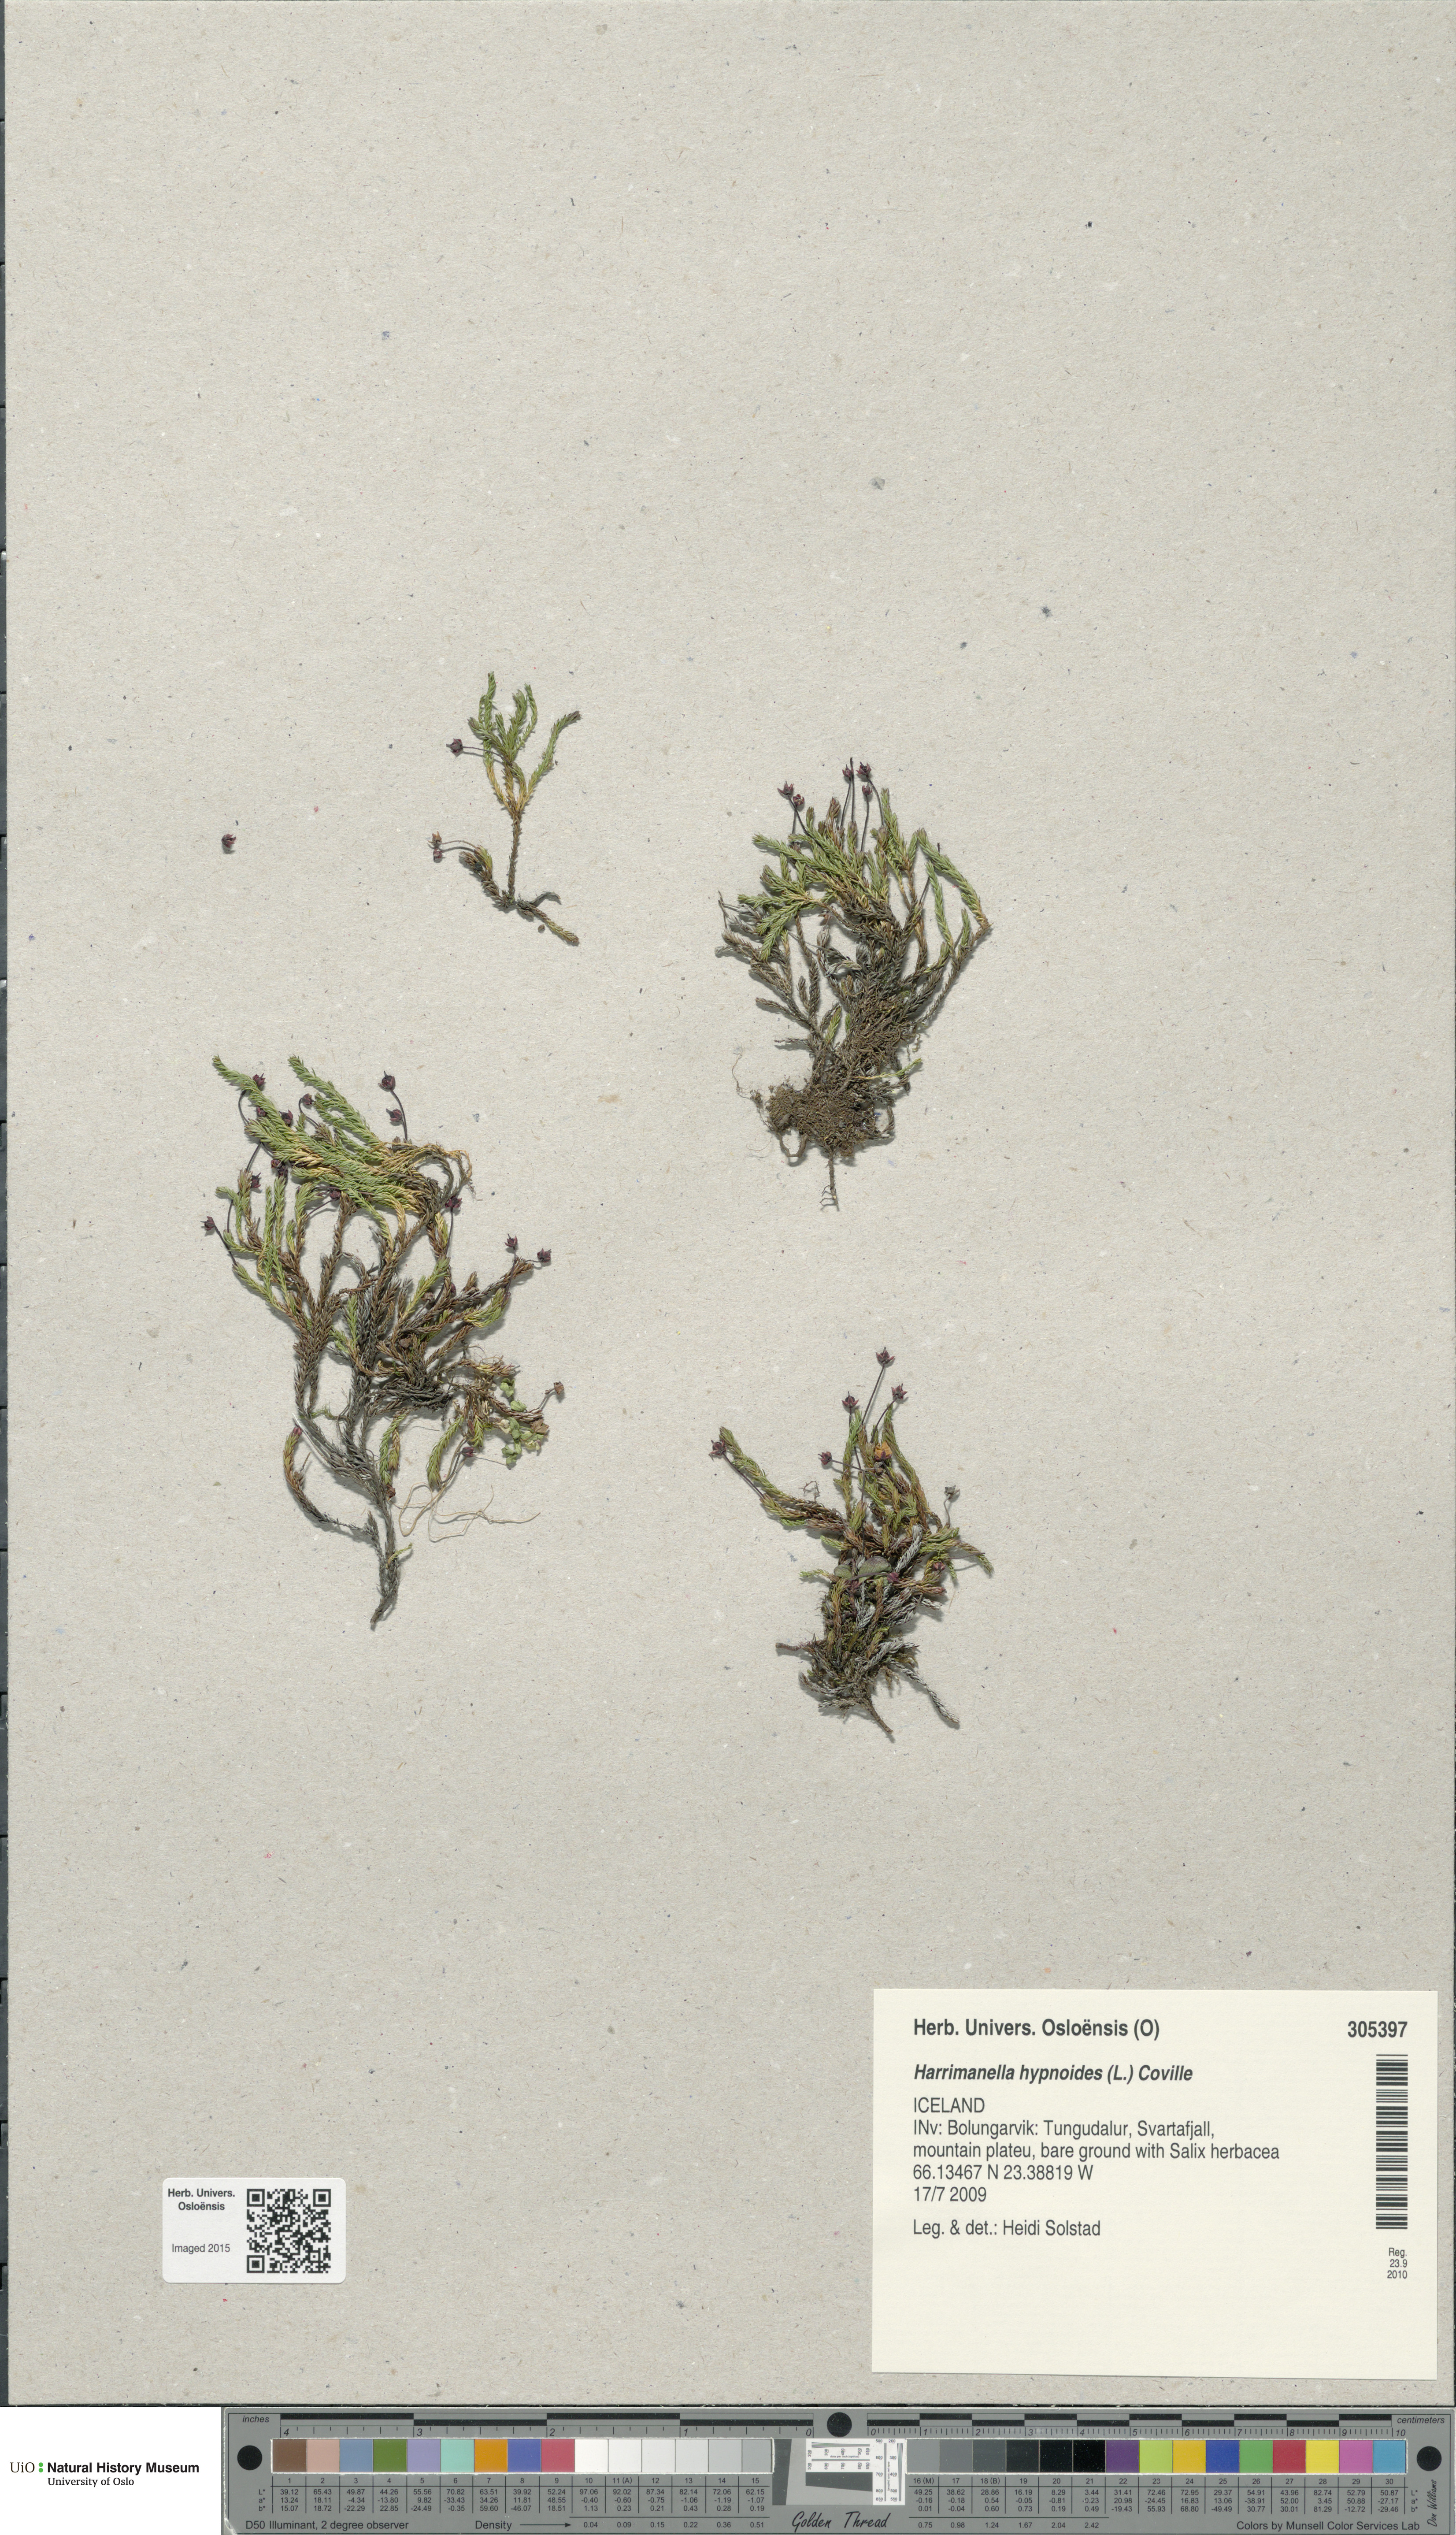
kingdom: Plantae
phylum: Tracheophyta
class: Magnoliopsida
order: Ericales
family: Ericaceae
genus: Harrimanella
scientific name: Harrimanella hypnoides
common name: Moss bell heather
